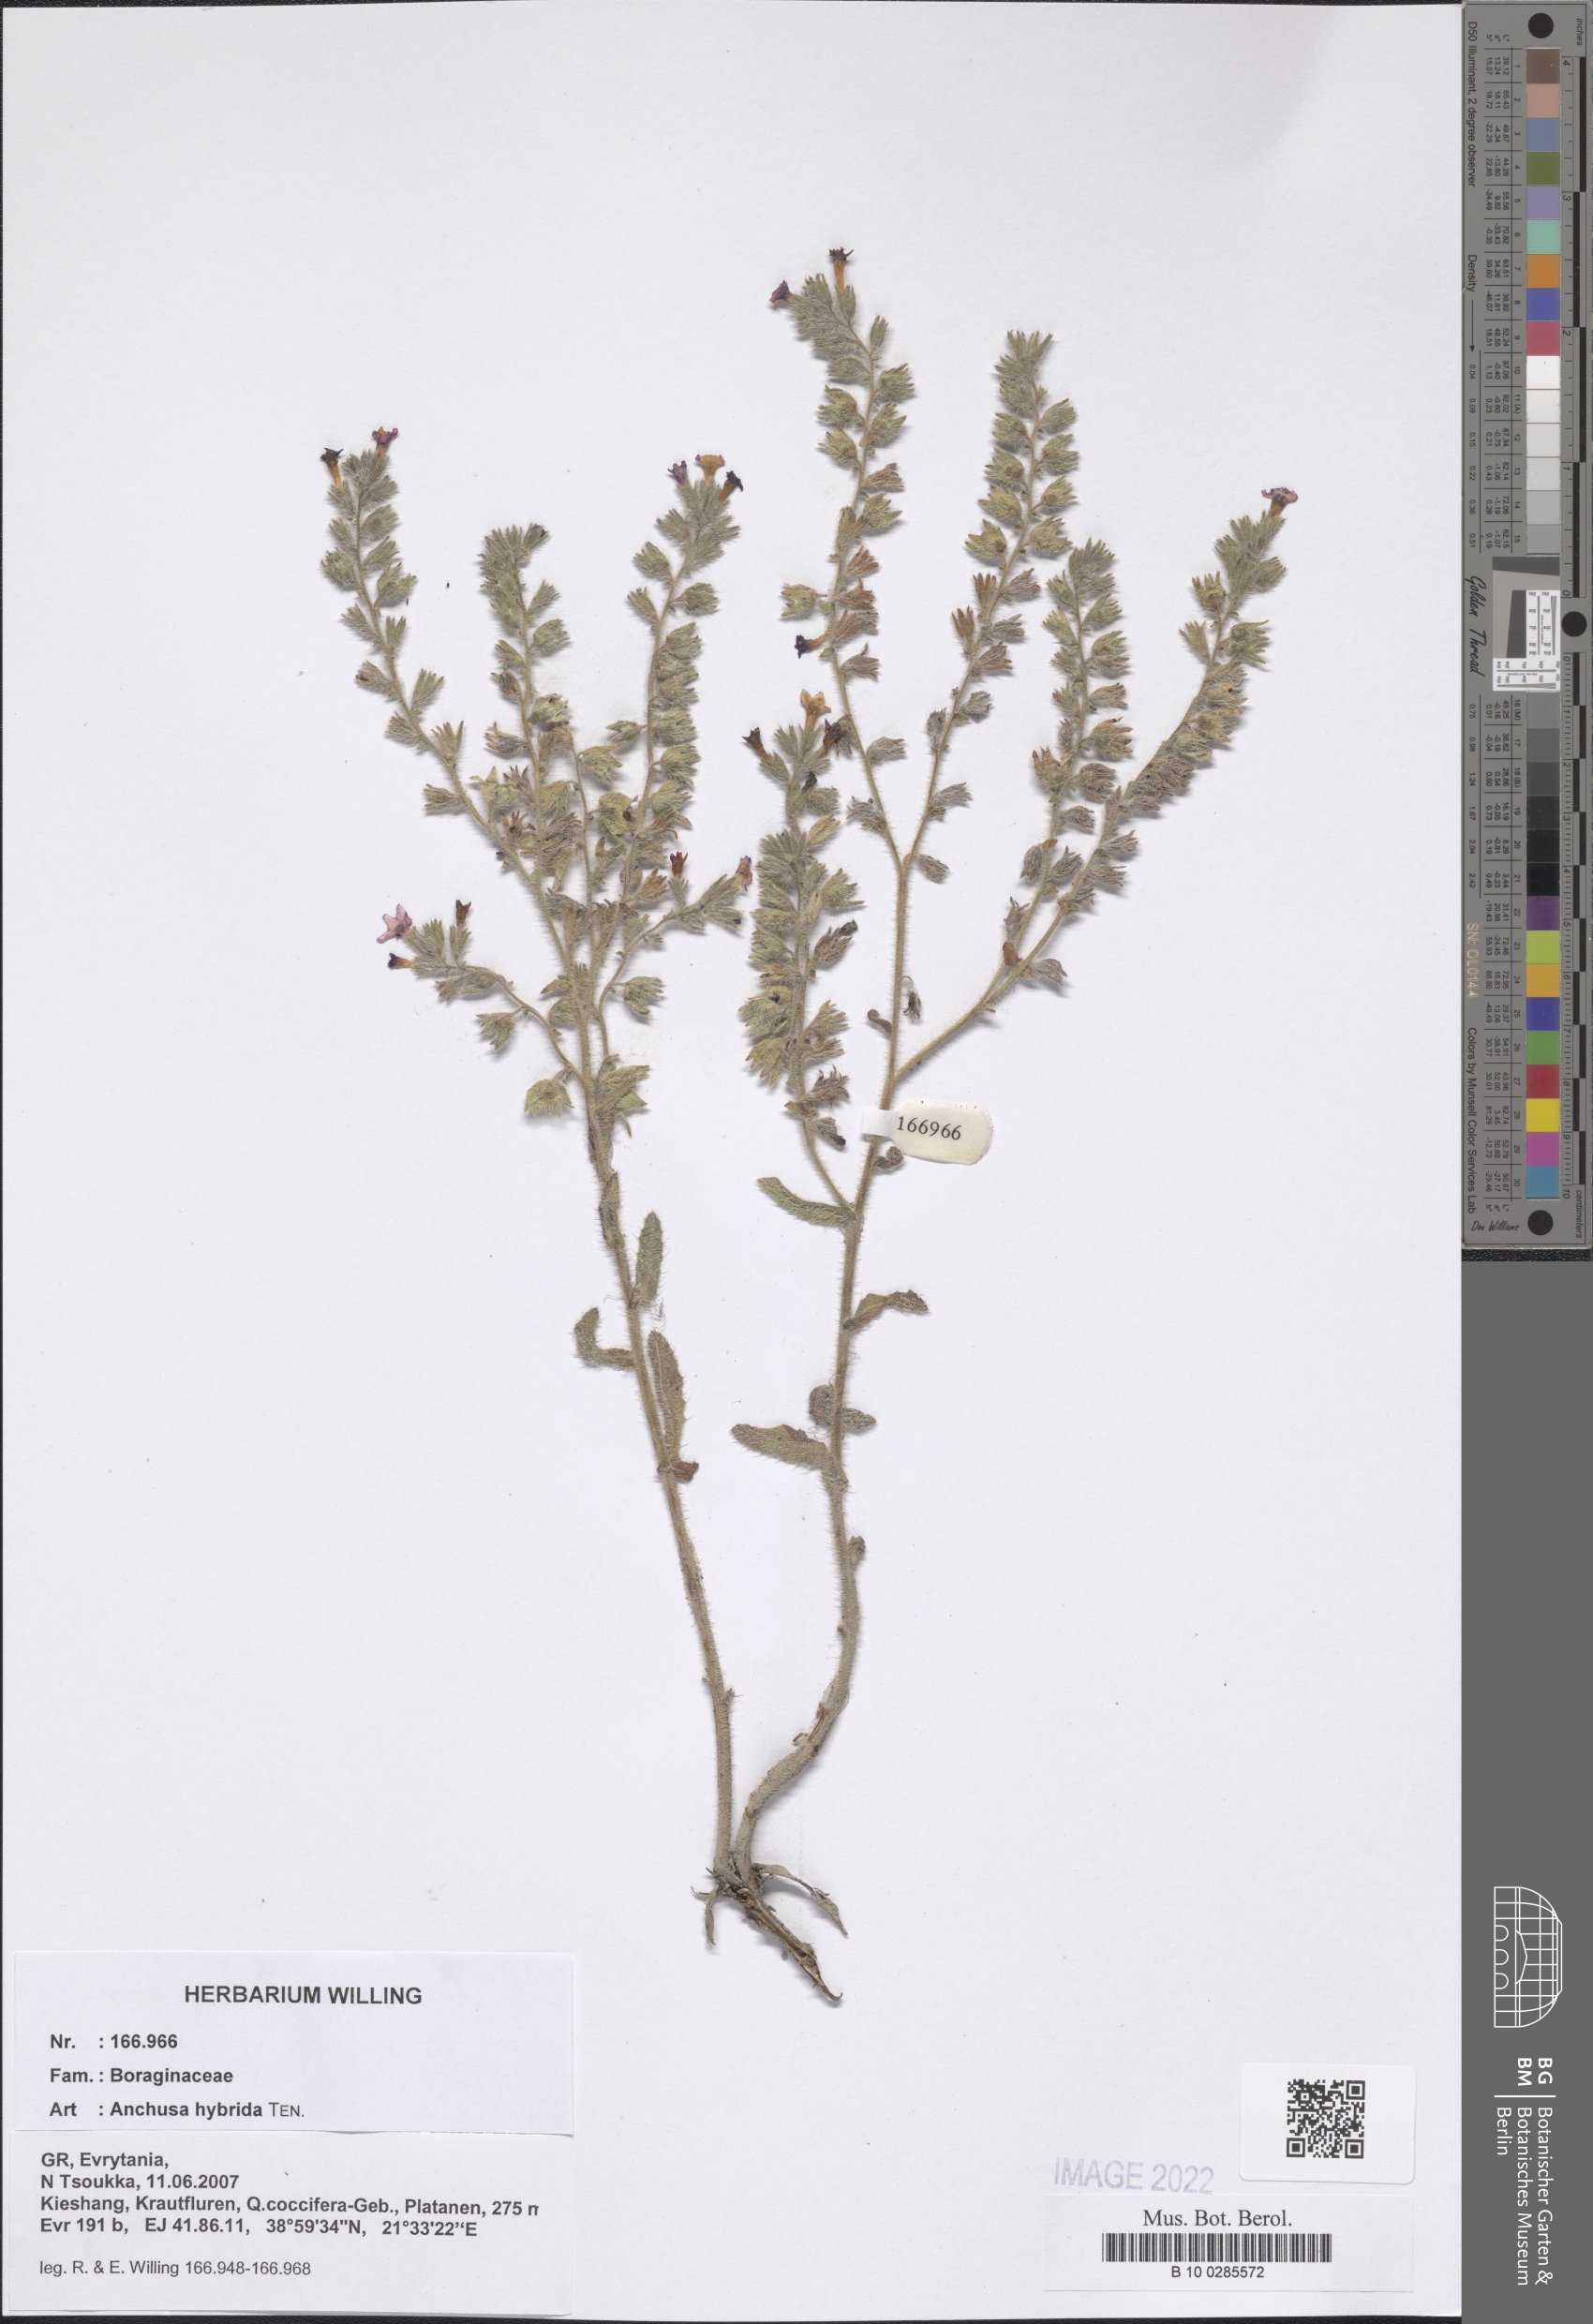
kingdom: Plantae
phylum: Tracheophyta
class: Magnoliopsida
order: Boraginales
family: Boraginaceae
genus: Anchusa
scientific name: Anchusa hybrida
